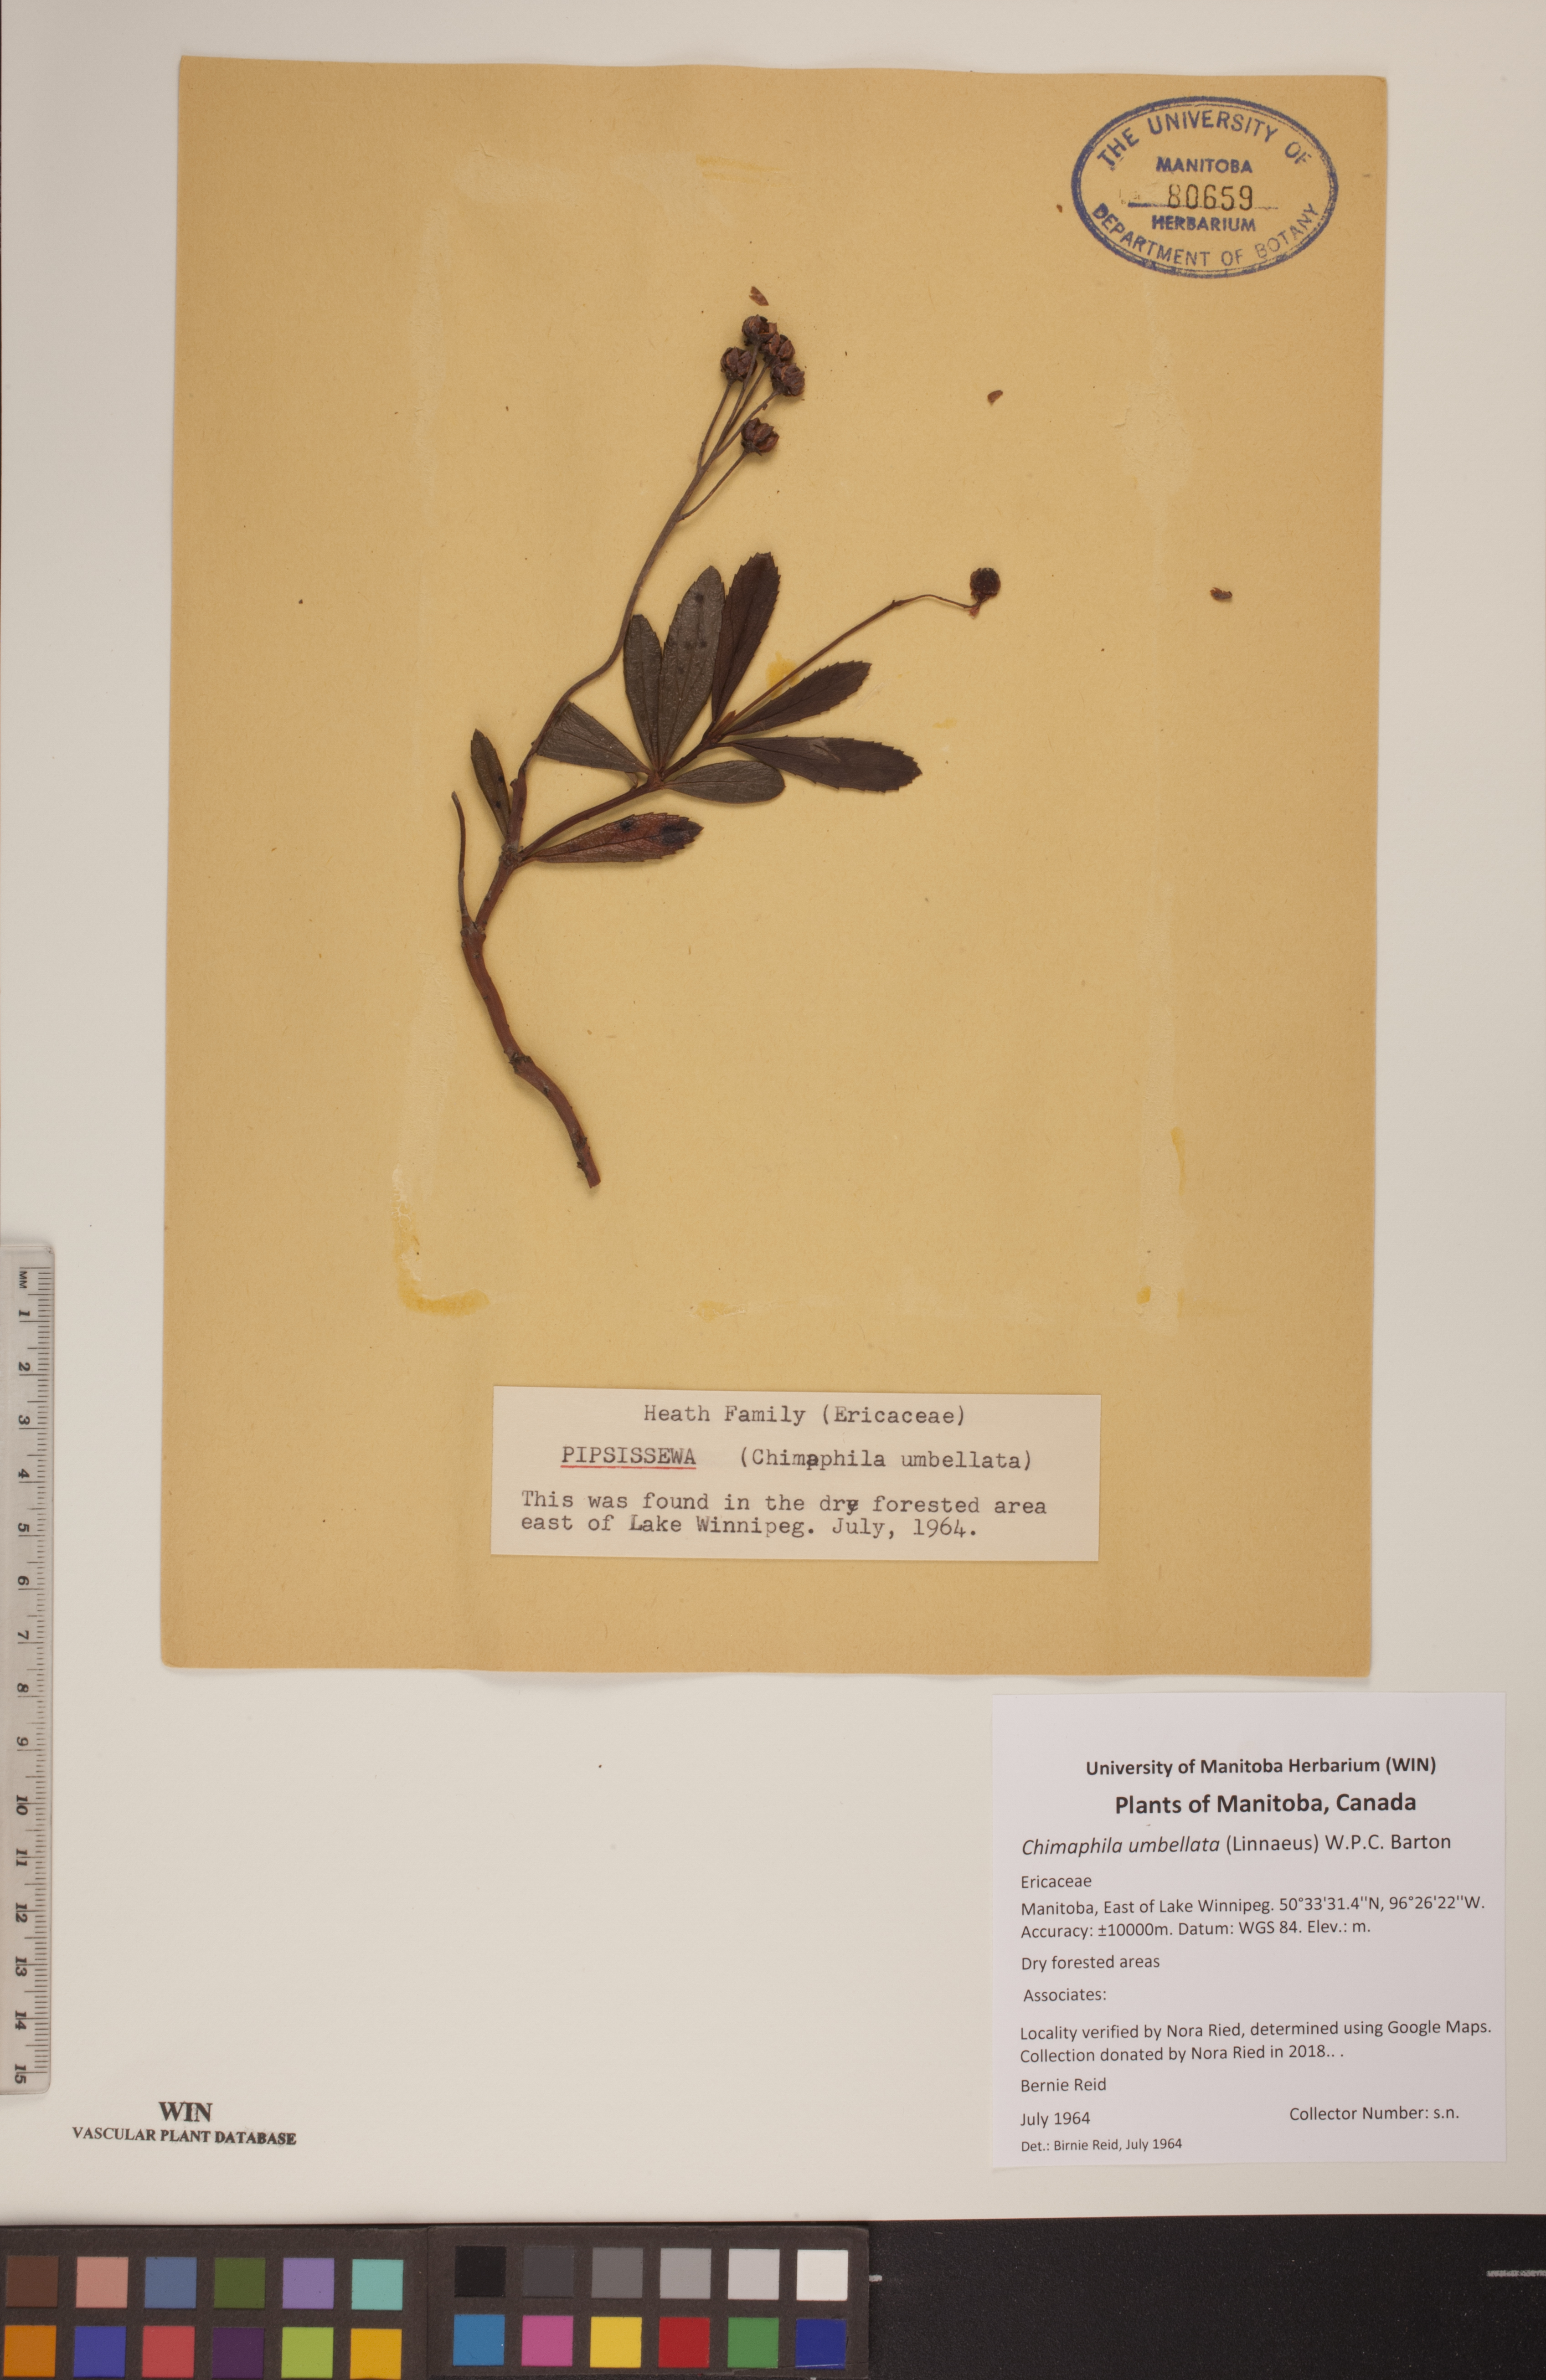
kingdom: Plantae
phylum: Tracheophyta
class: Magnoliopsida
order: Ericales
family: Ericaceae
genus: Chimaphila
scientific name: Chimaphila umbellata
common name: Pipsissewa
